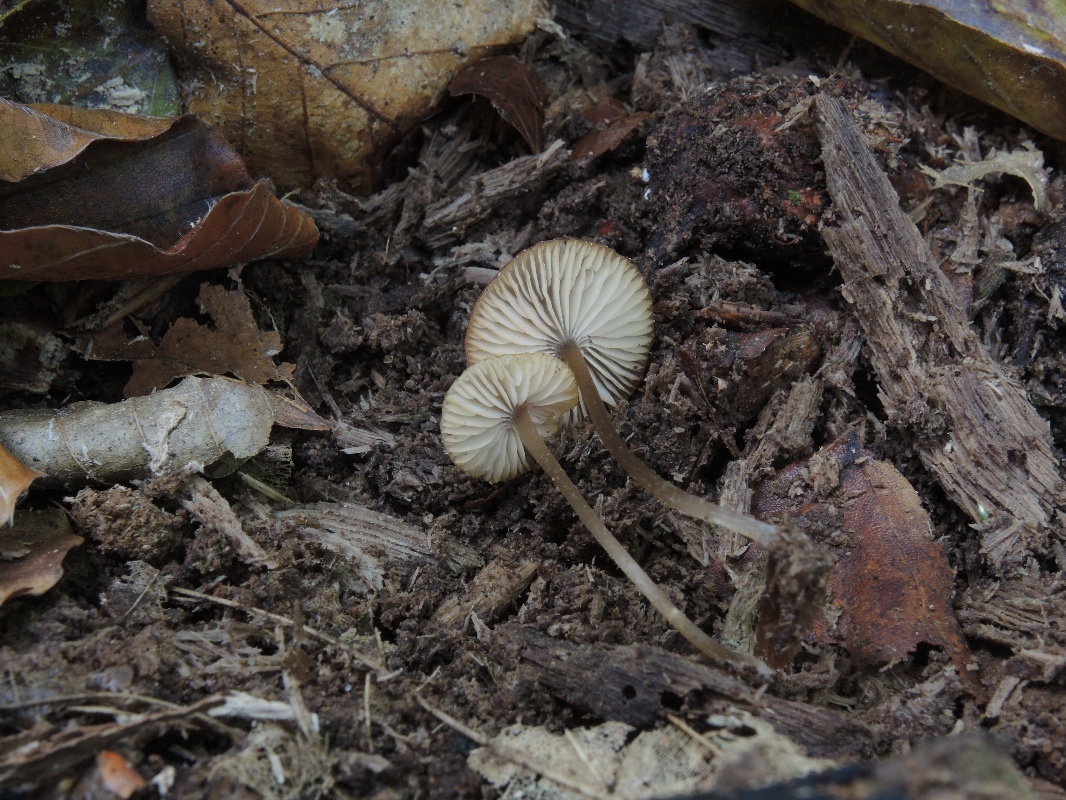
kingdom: Fungi
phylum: Basidiomycota
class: Agaricomycetes
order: Agaricales
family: Entolomataceae
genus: Entoloma
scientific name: Entoloma politum
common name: poleret rødblad
